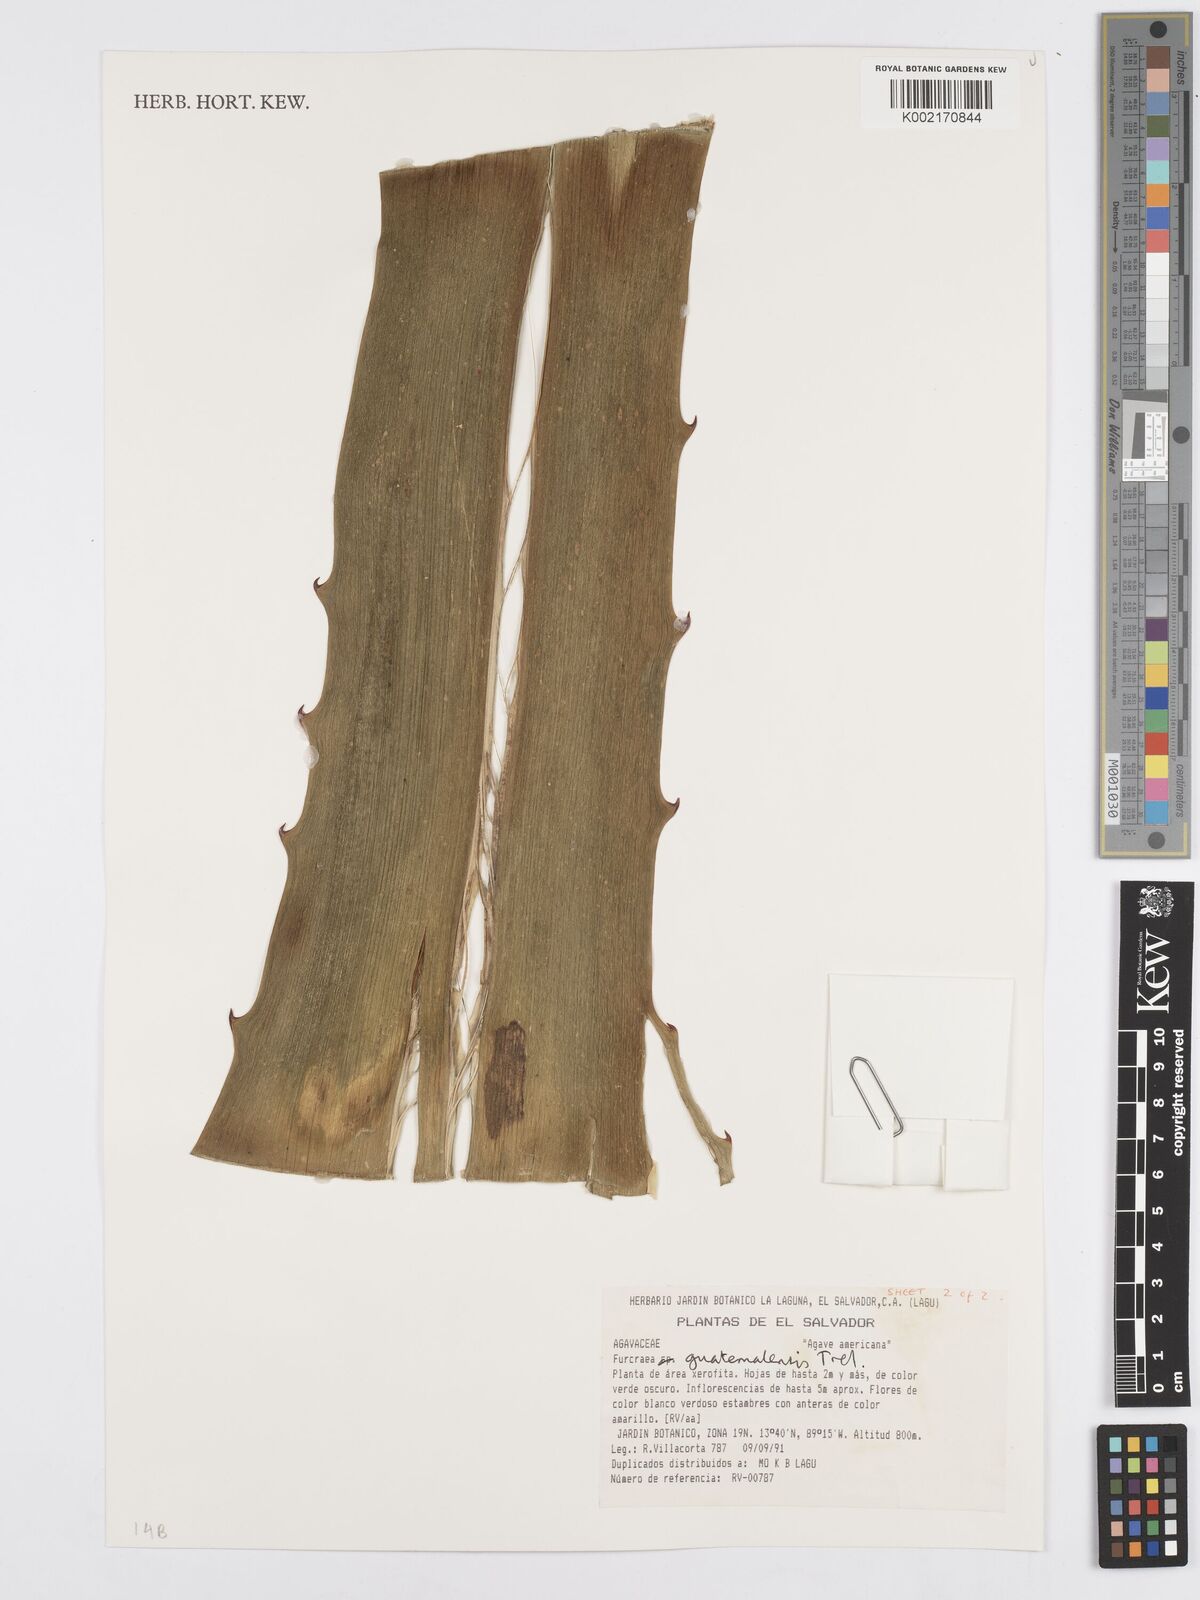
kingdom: Plantae
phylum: Tracheophyta
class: Liliopsida
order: Asparagales
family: Asparagaceae
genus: Furcraea
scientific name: Furcraea guatemalensis
